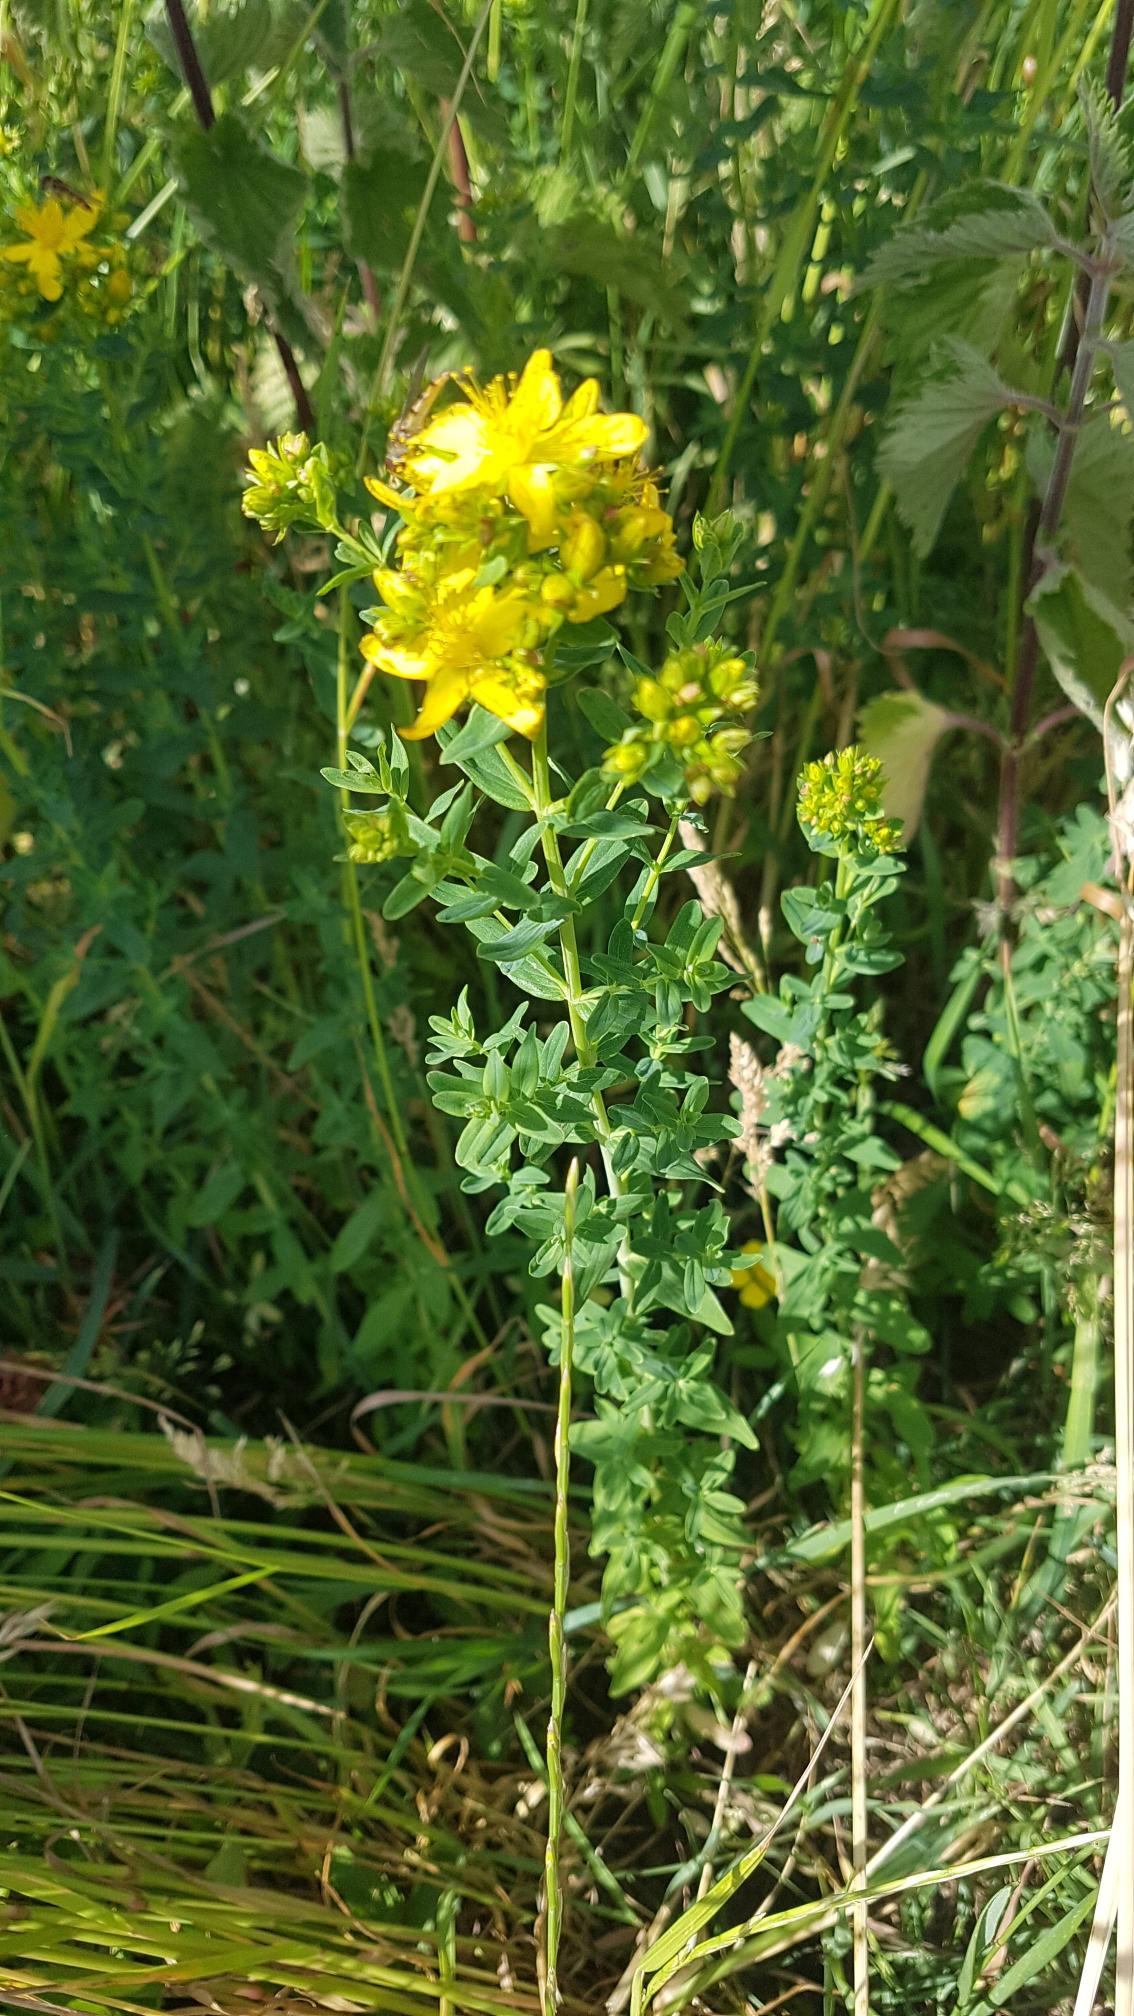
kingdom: Plantae
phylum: Tracheophyta
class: Magnoliopsida
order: Malpighiales
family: Hypericaceae
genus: Hypericum
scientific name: Hypericum maculatum
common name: Kantet perikon
